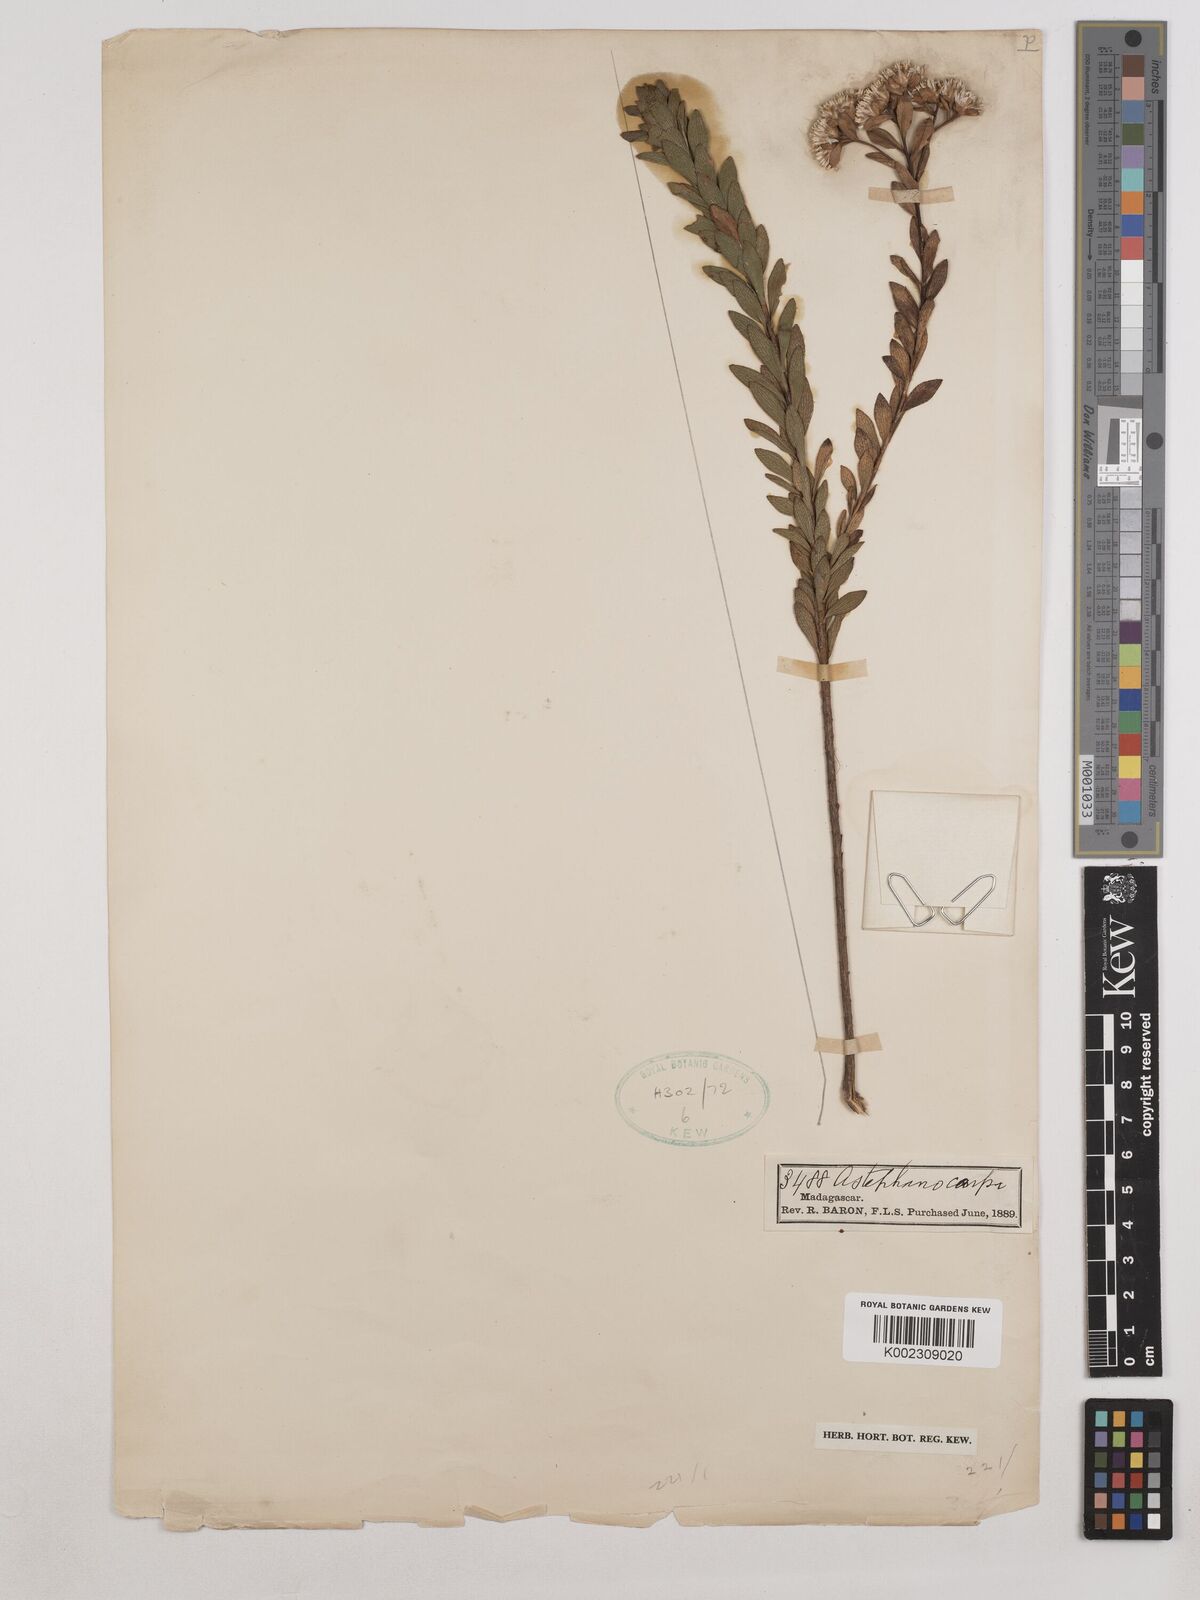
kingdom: Plantae
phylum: Tracheophyta
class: Magnoliopsida
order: Asterales
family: Asteraceae
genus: Syncephalum
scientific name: Syncephalum arbutifolium
